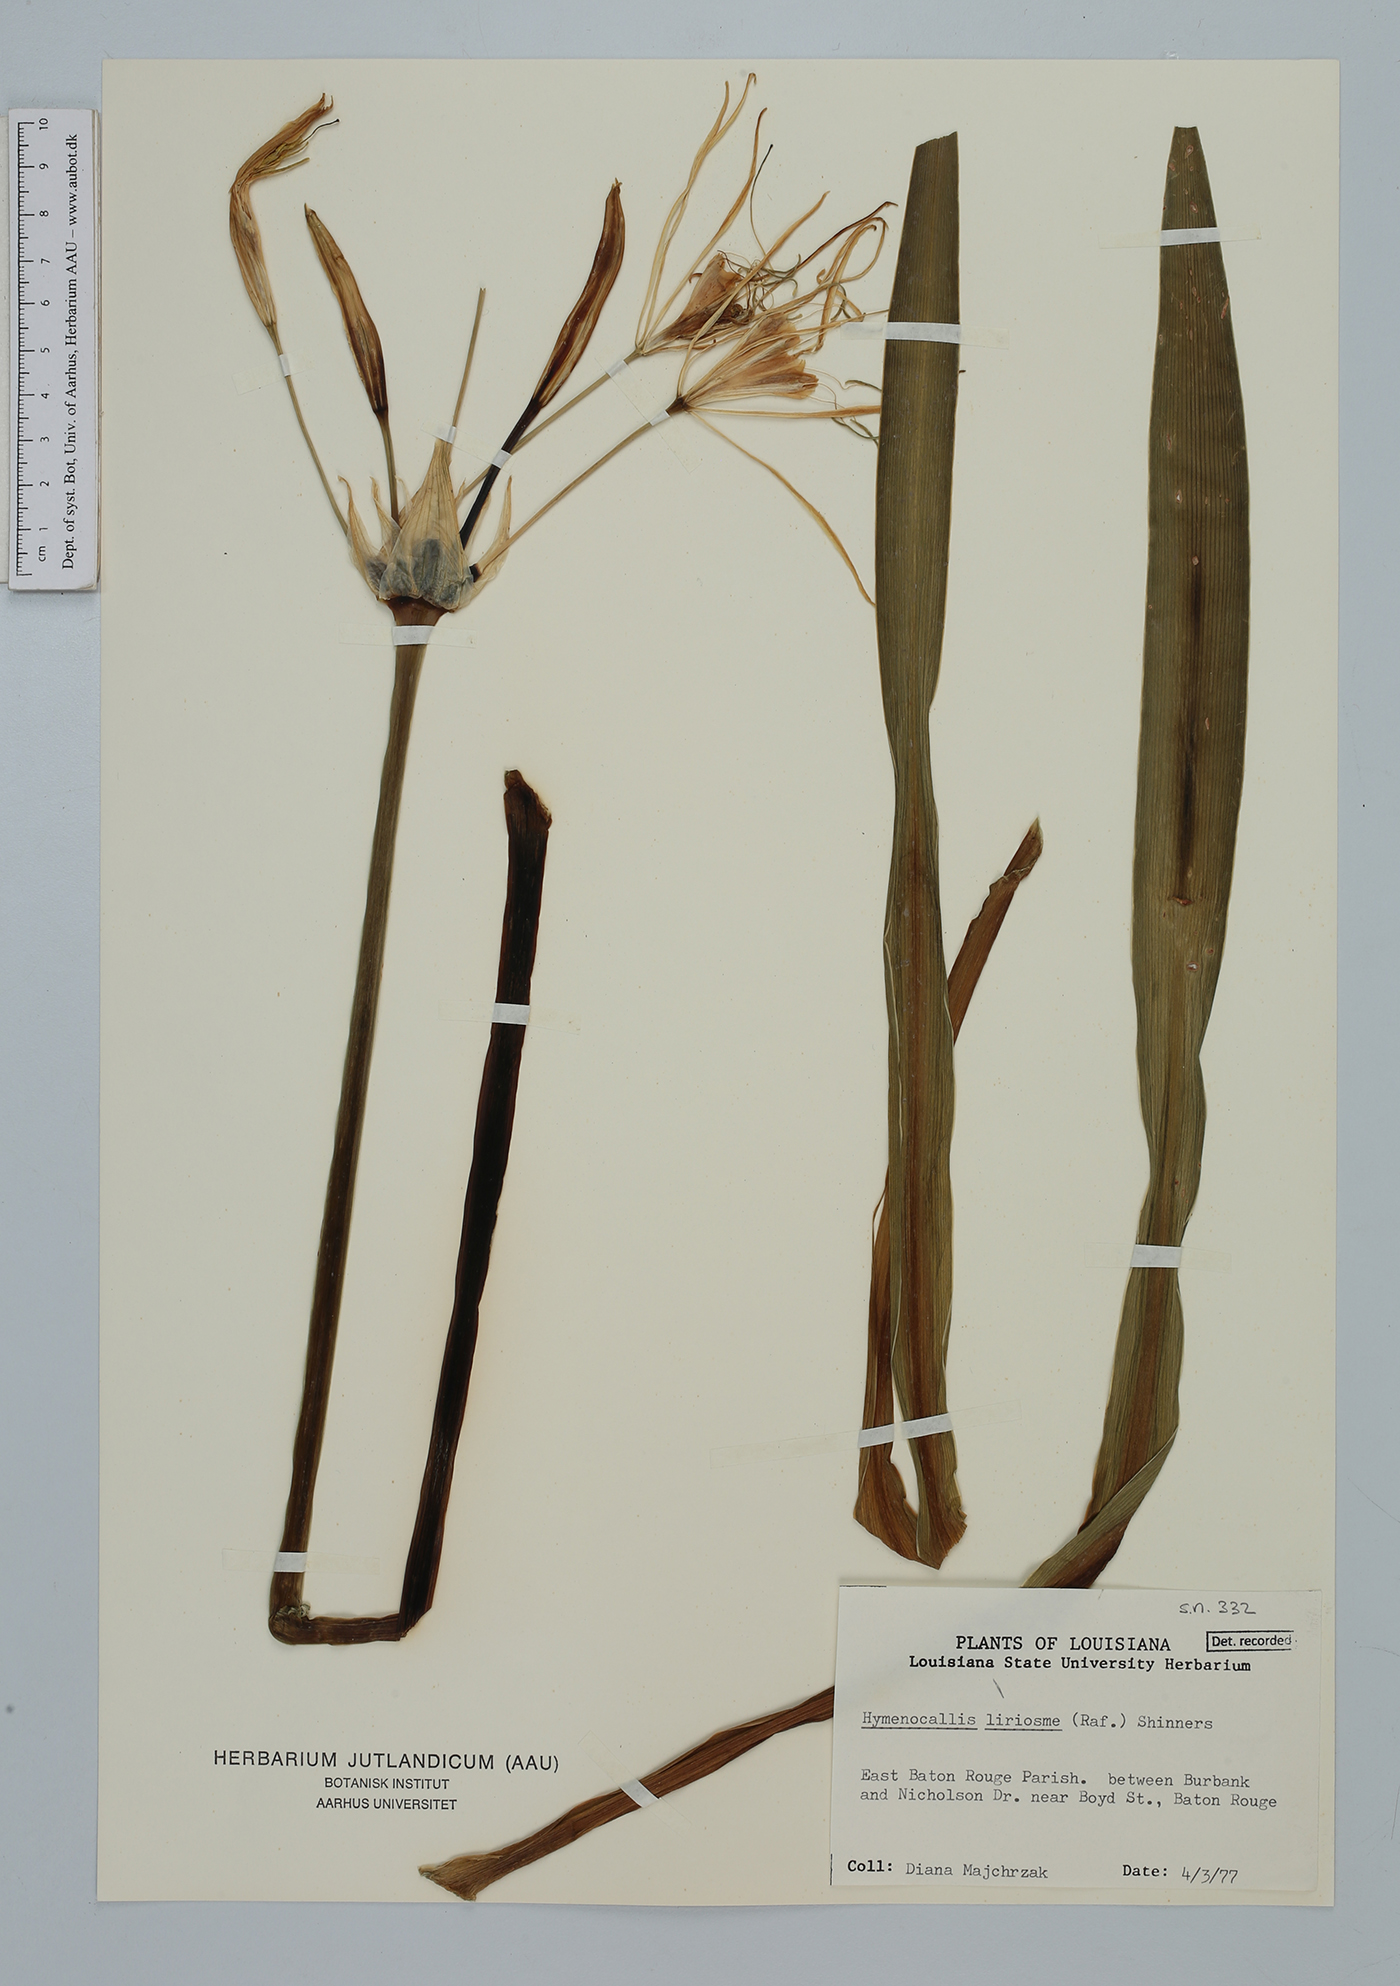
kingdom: Plantae
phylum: Tracheophyta
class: Liliopsida
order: Asparagales
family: Amaryllidaceae
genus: Hymenocallis
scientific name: Hymenocallis liriosme
